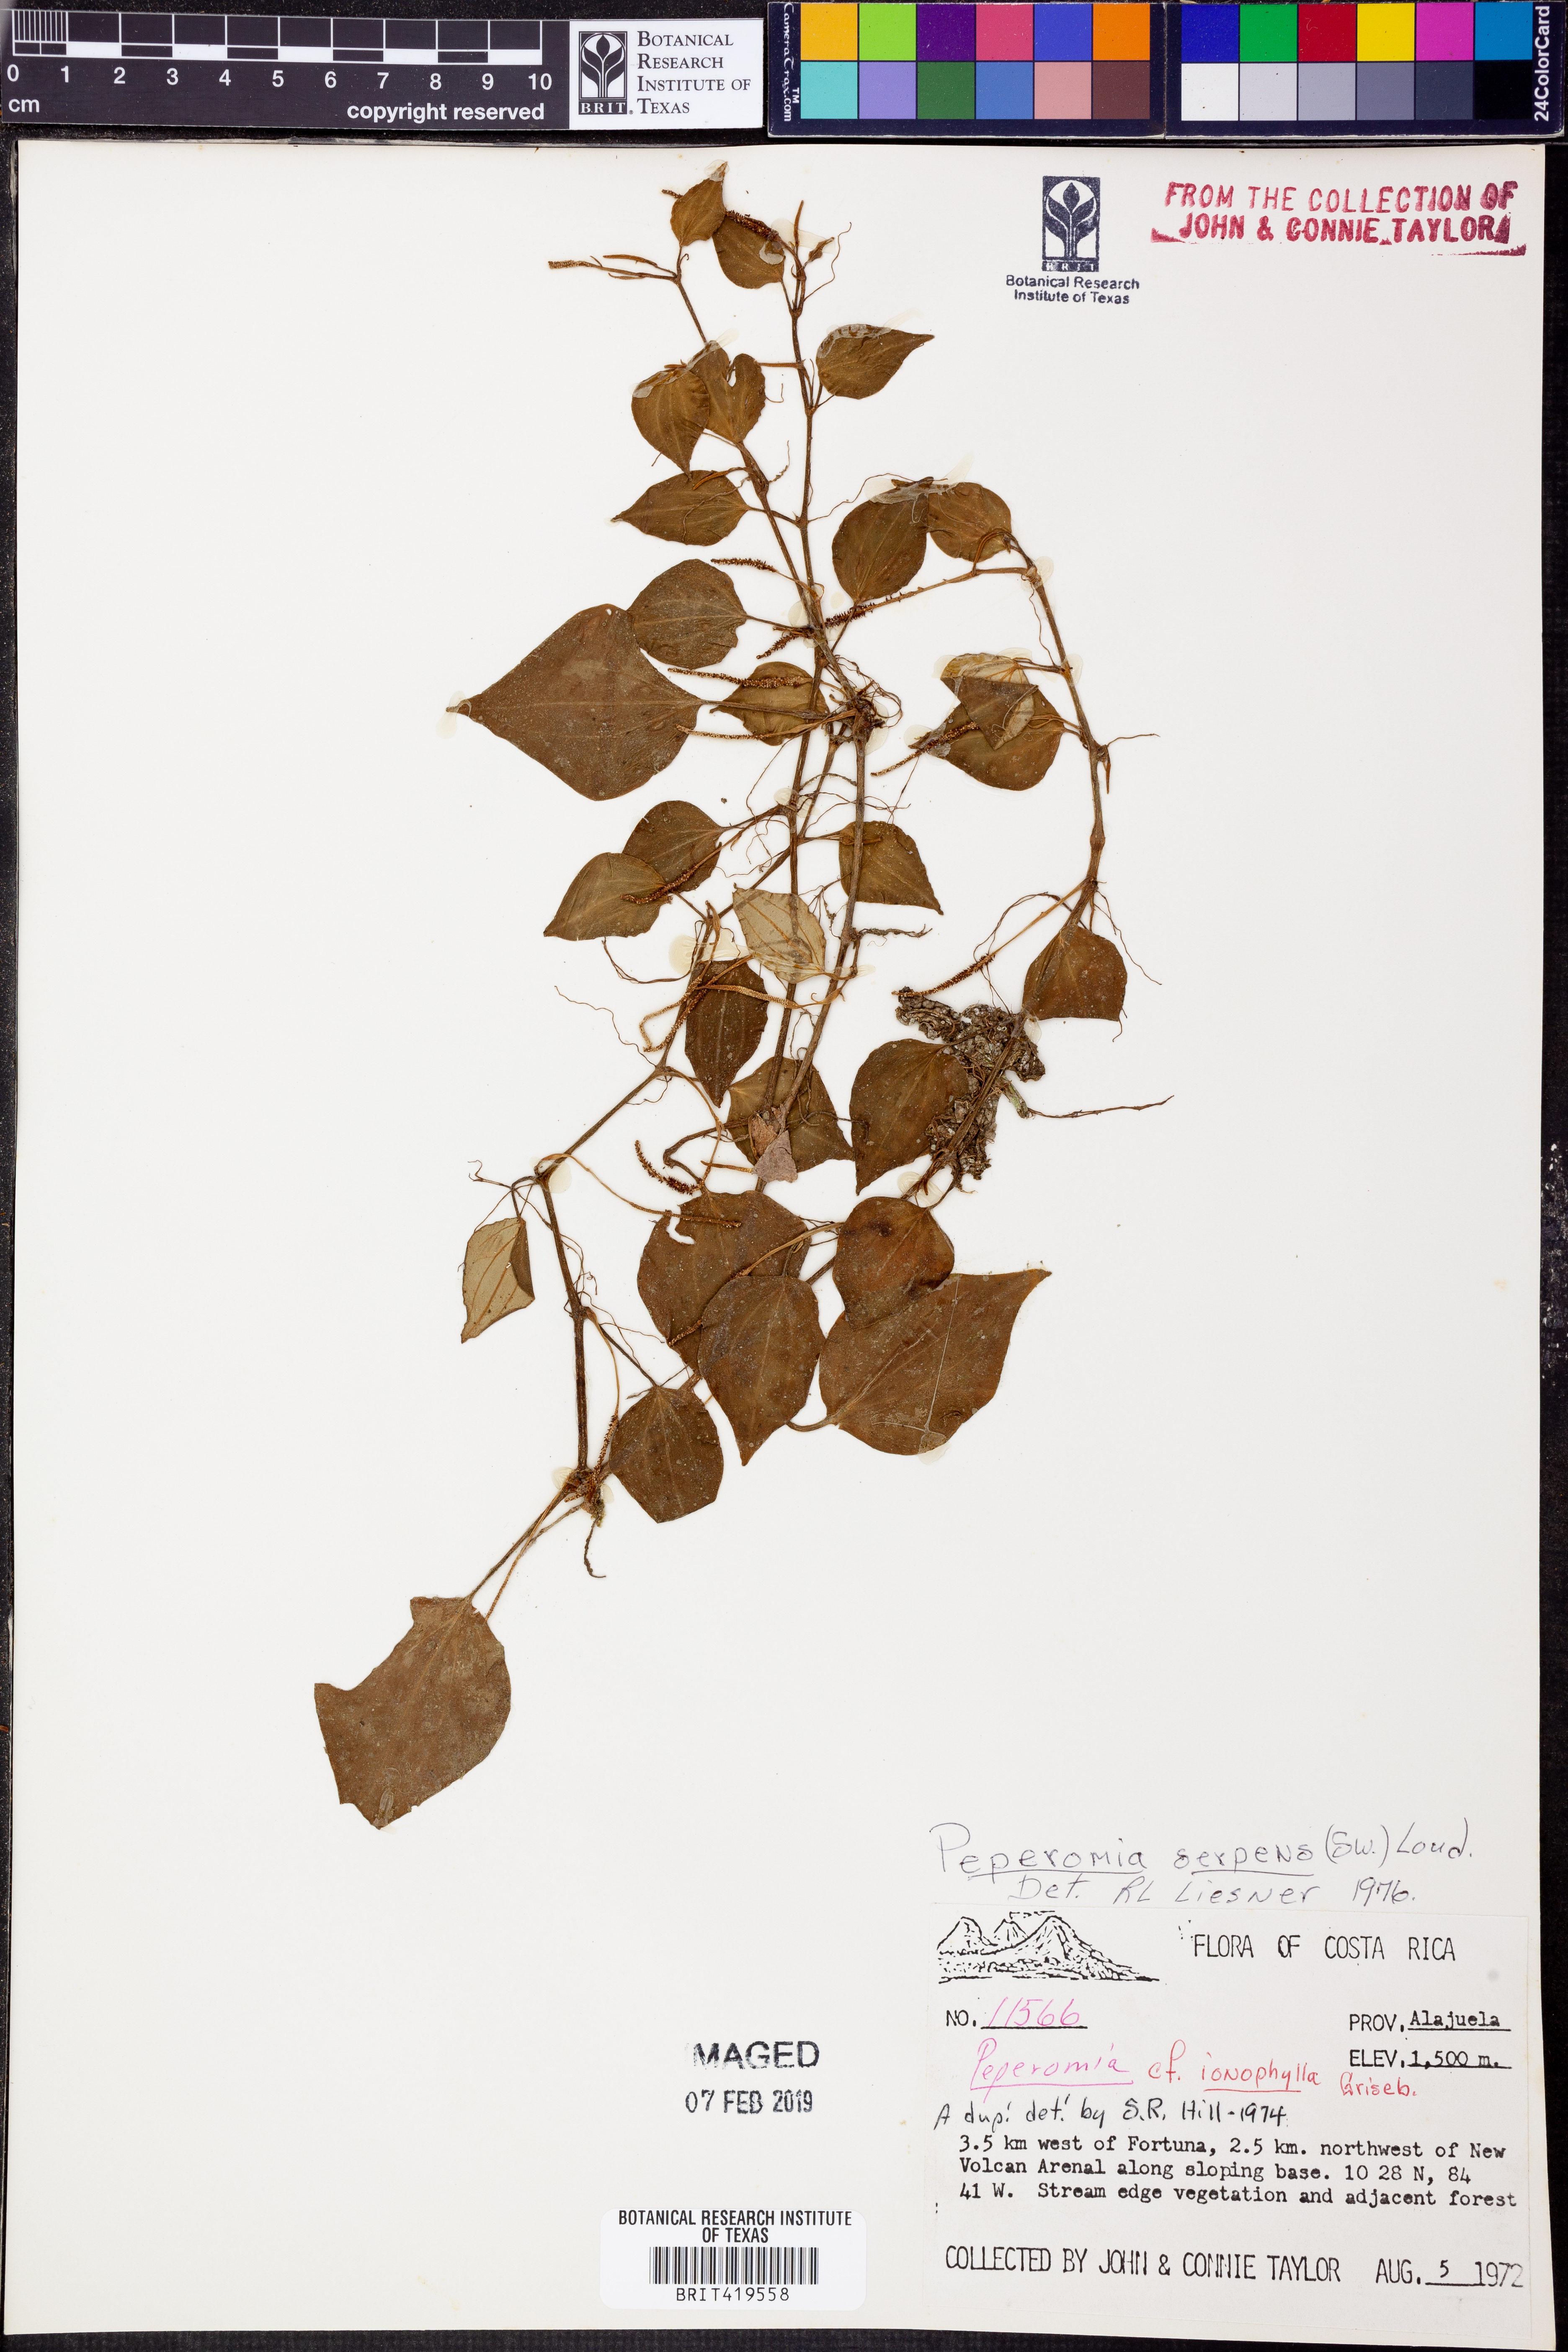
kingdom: Plantae
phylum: Tracheophyta
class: Magnoliopsida
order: Piperales
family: Piperaceae
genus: Peperomia
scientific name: Peperomia serpens
